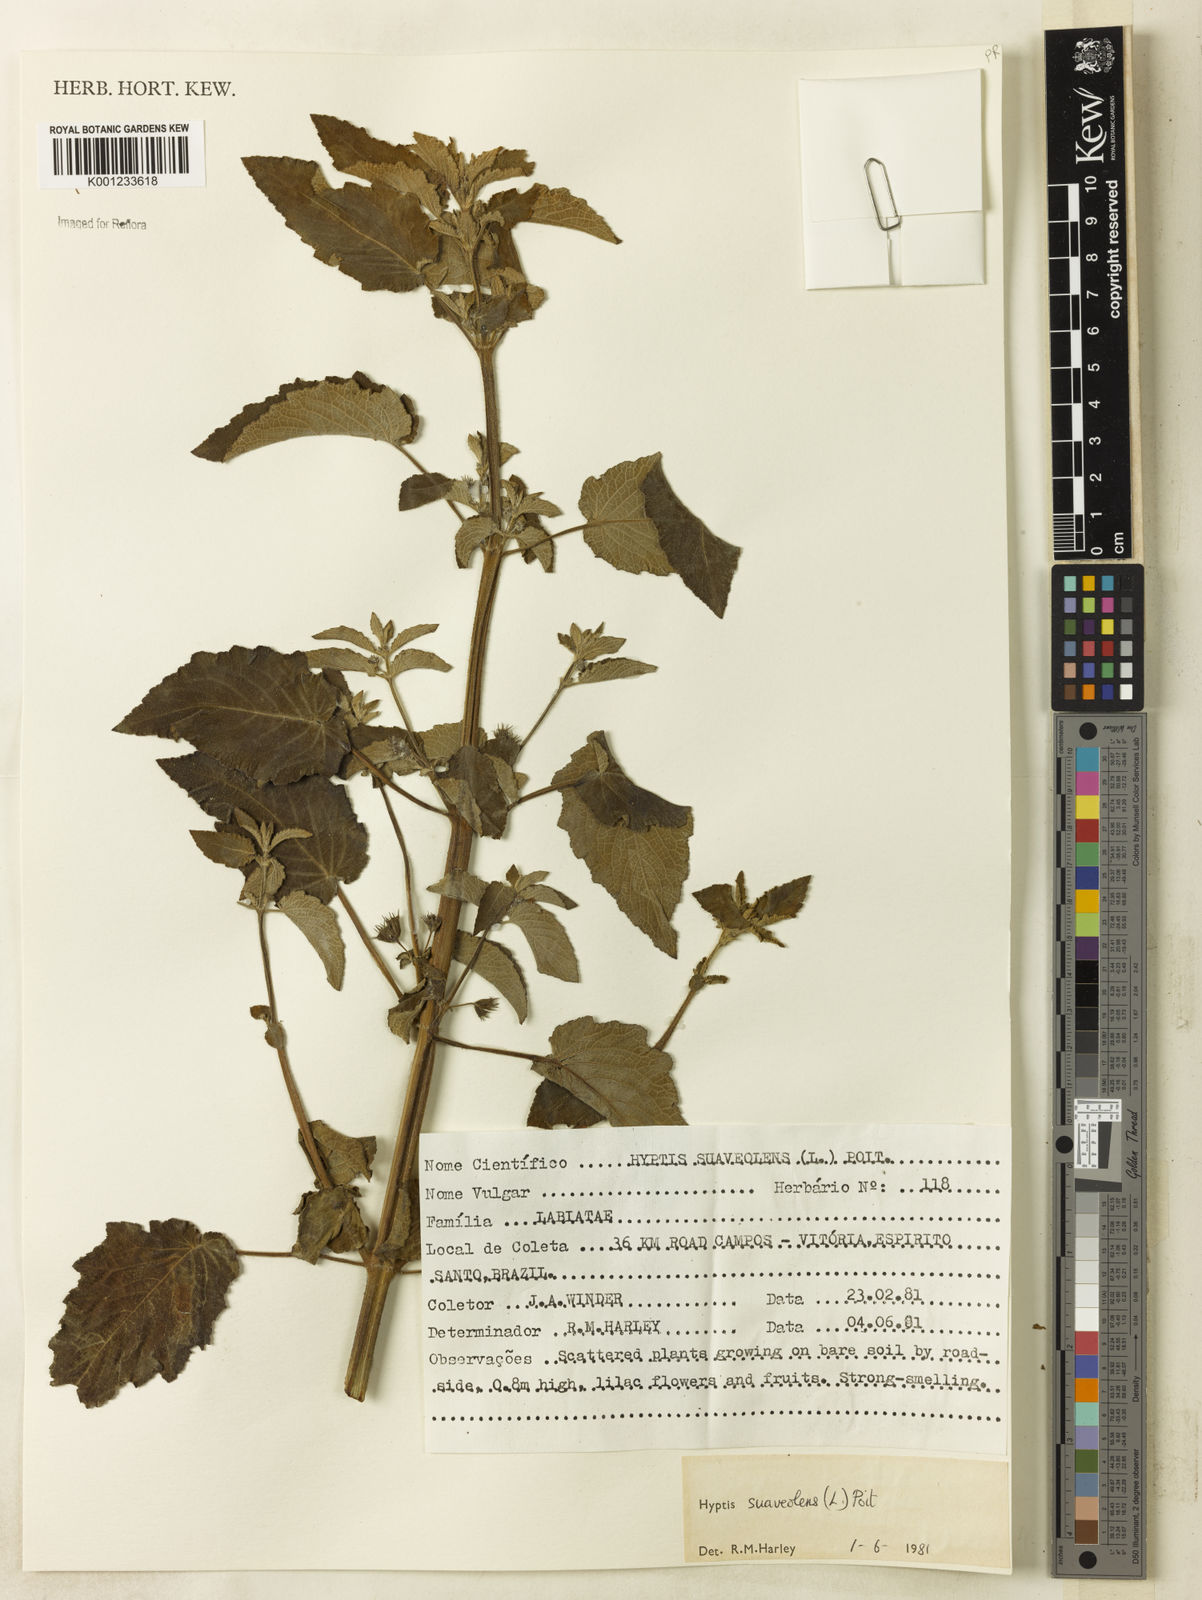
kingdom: Plantae
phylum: Tracheophyta
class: Magnoliopsida
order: Lamiales
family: Lamiaceae
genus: Mesosphaerum
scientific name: Mesosphaerum suaveolens
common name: Pignut
